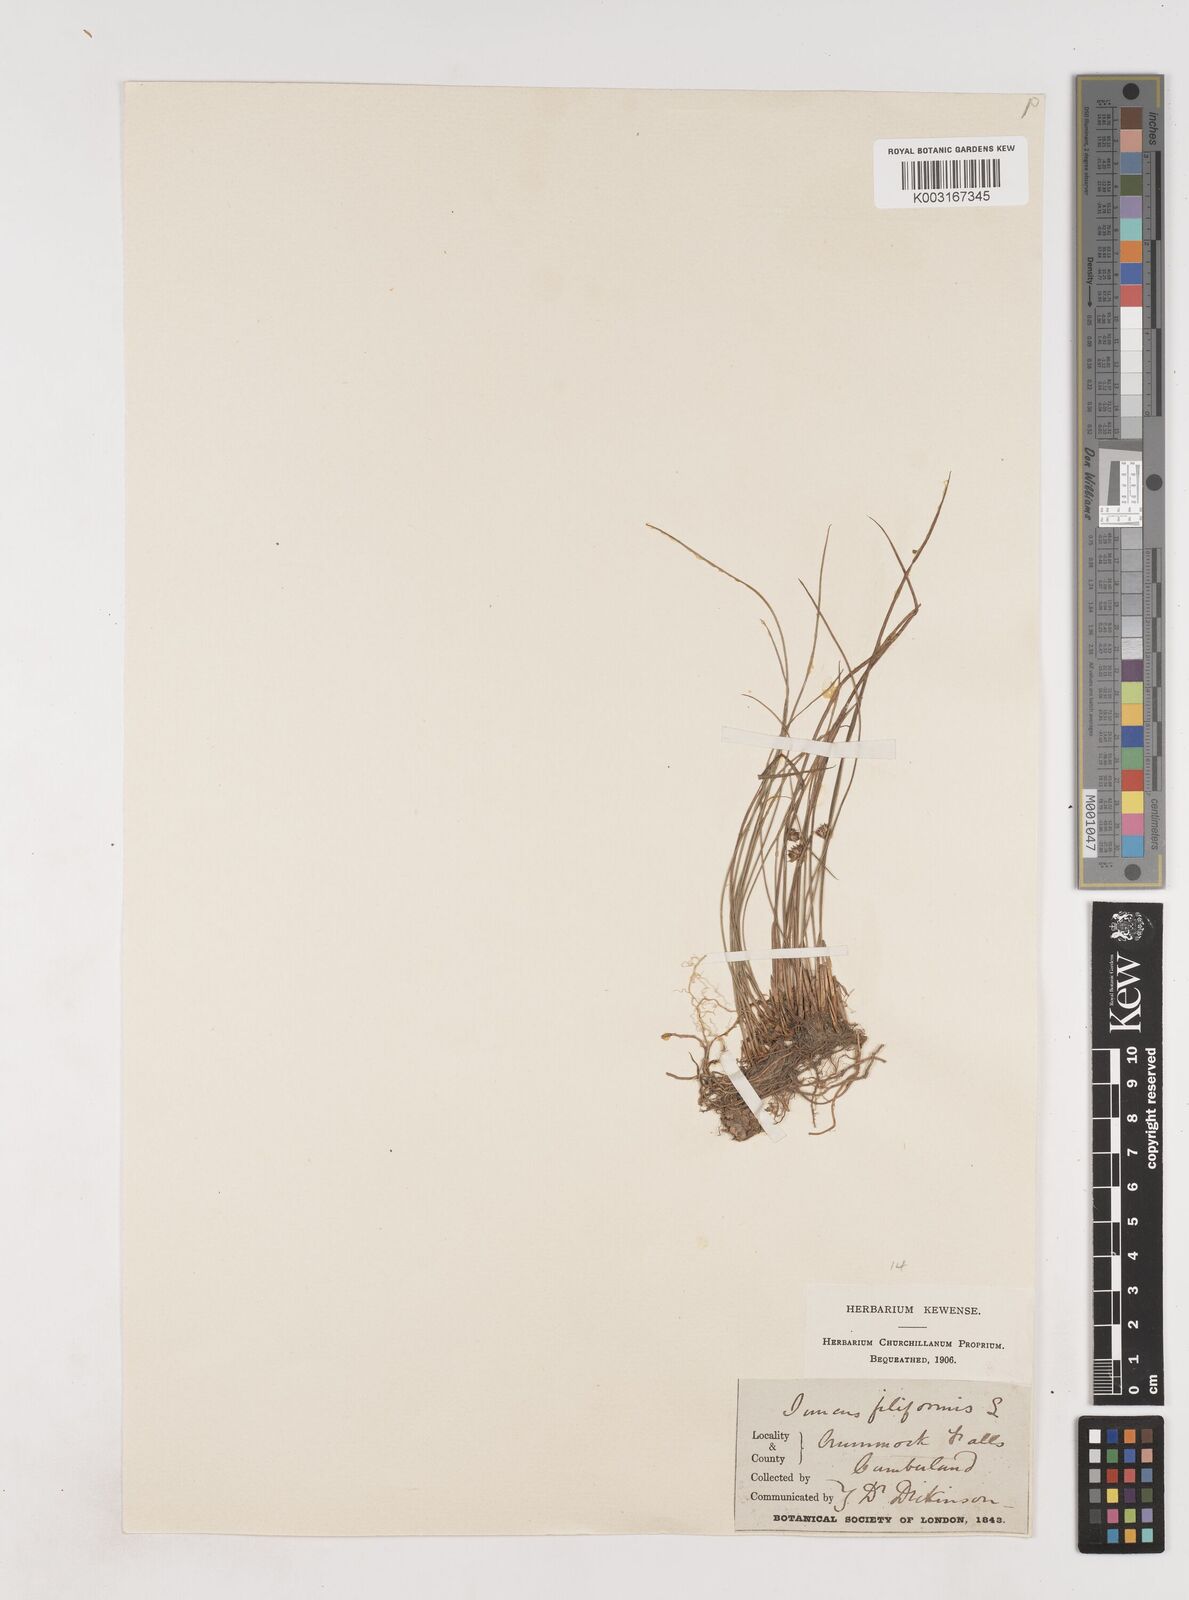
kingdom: Plantae
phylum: Tracheophyta
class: Liliopsida
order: Poales
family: Juncaceae
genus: Juncus
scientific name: Juncus filiformis
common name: Thread rush
